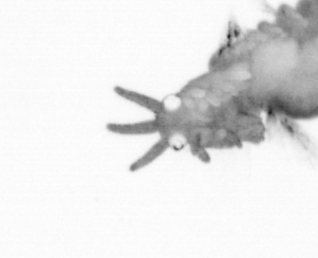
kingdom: Animalia
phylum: Arthropoda
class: Copepoda
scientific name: Copepoda
